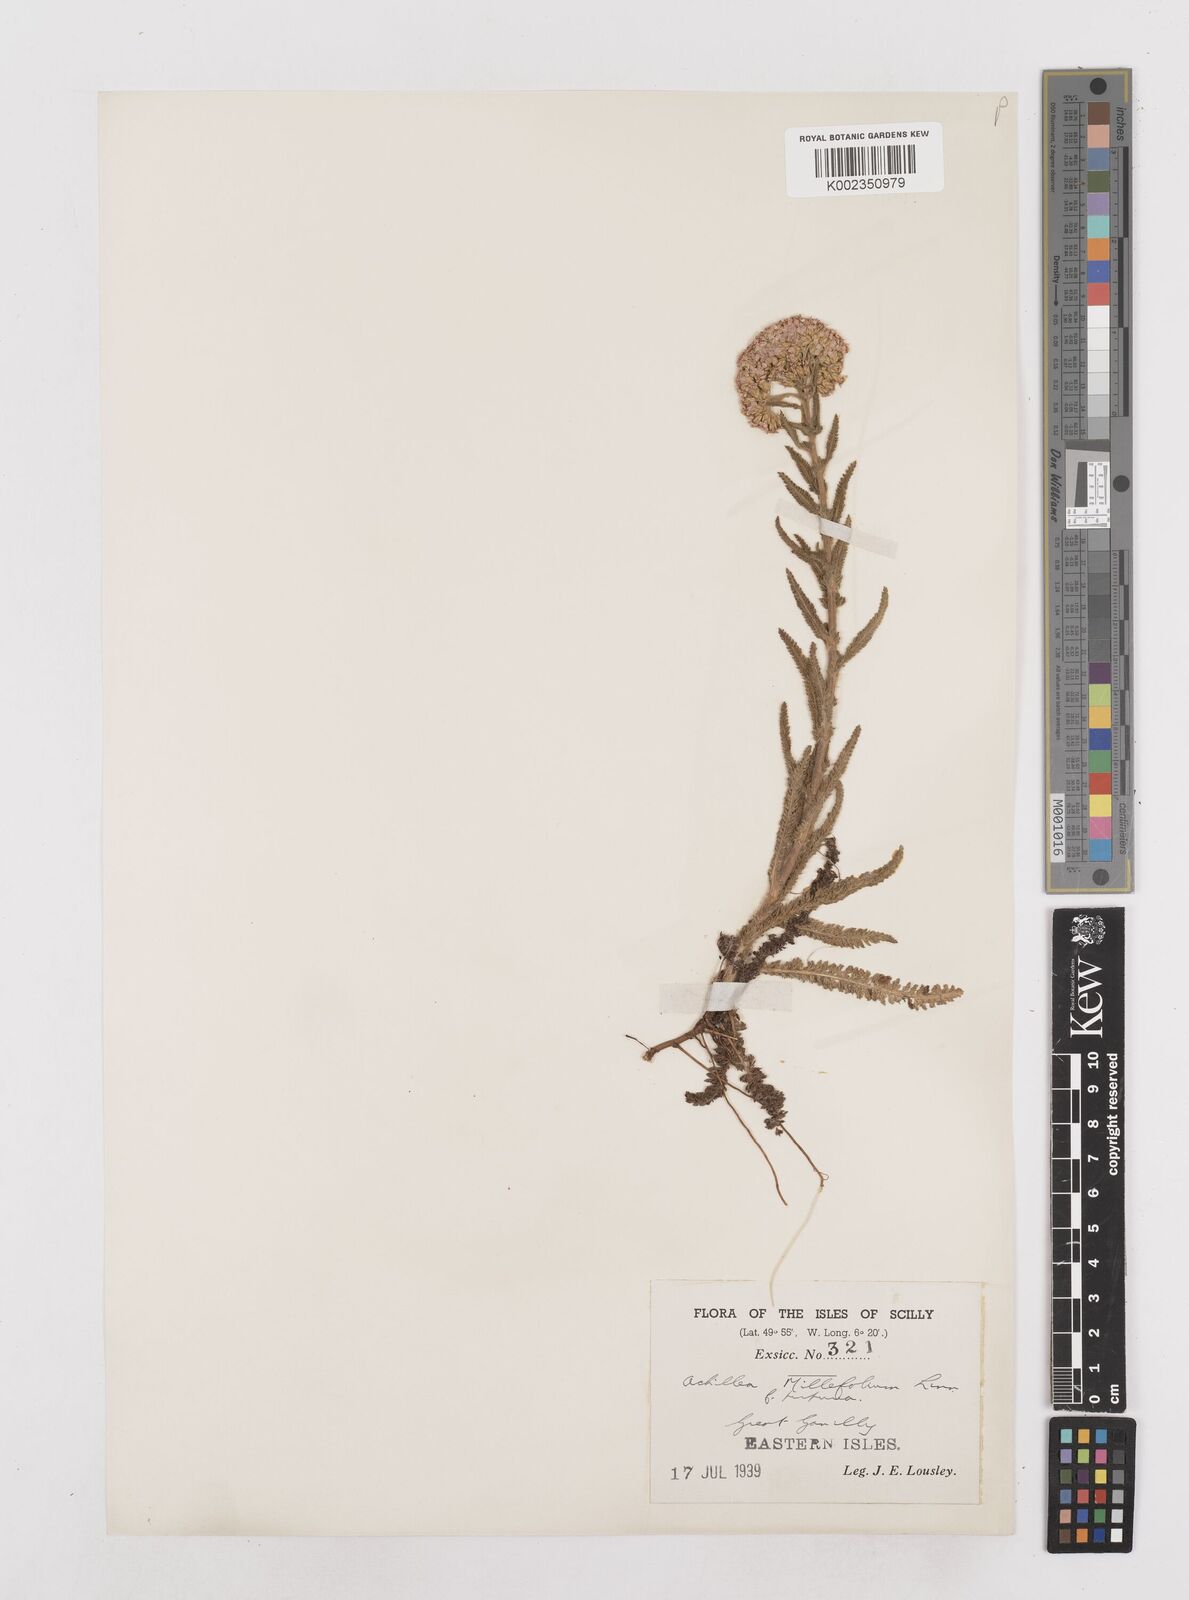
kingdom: Plantae
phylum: Tracheophyta
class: Magnoliopsida
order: Asterales
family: Asteraceae
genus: Achillea
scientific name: Achillea millefolium
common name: Yarrow
